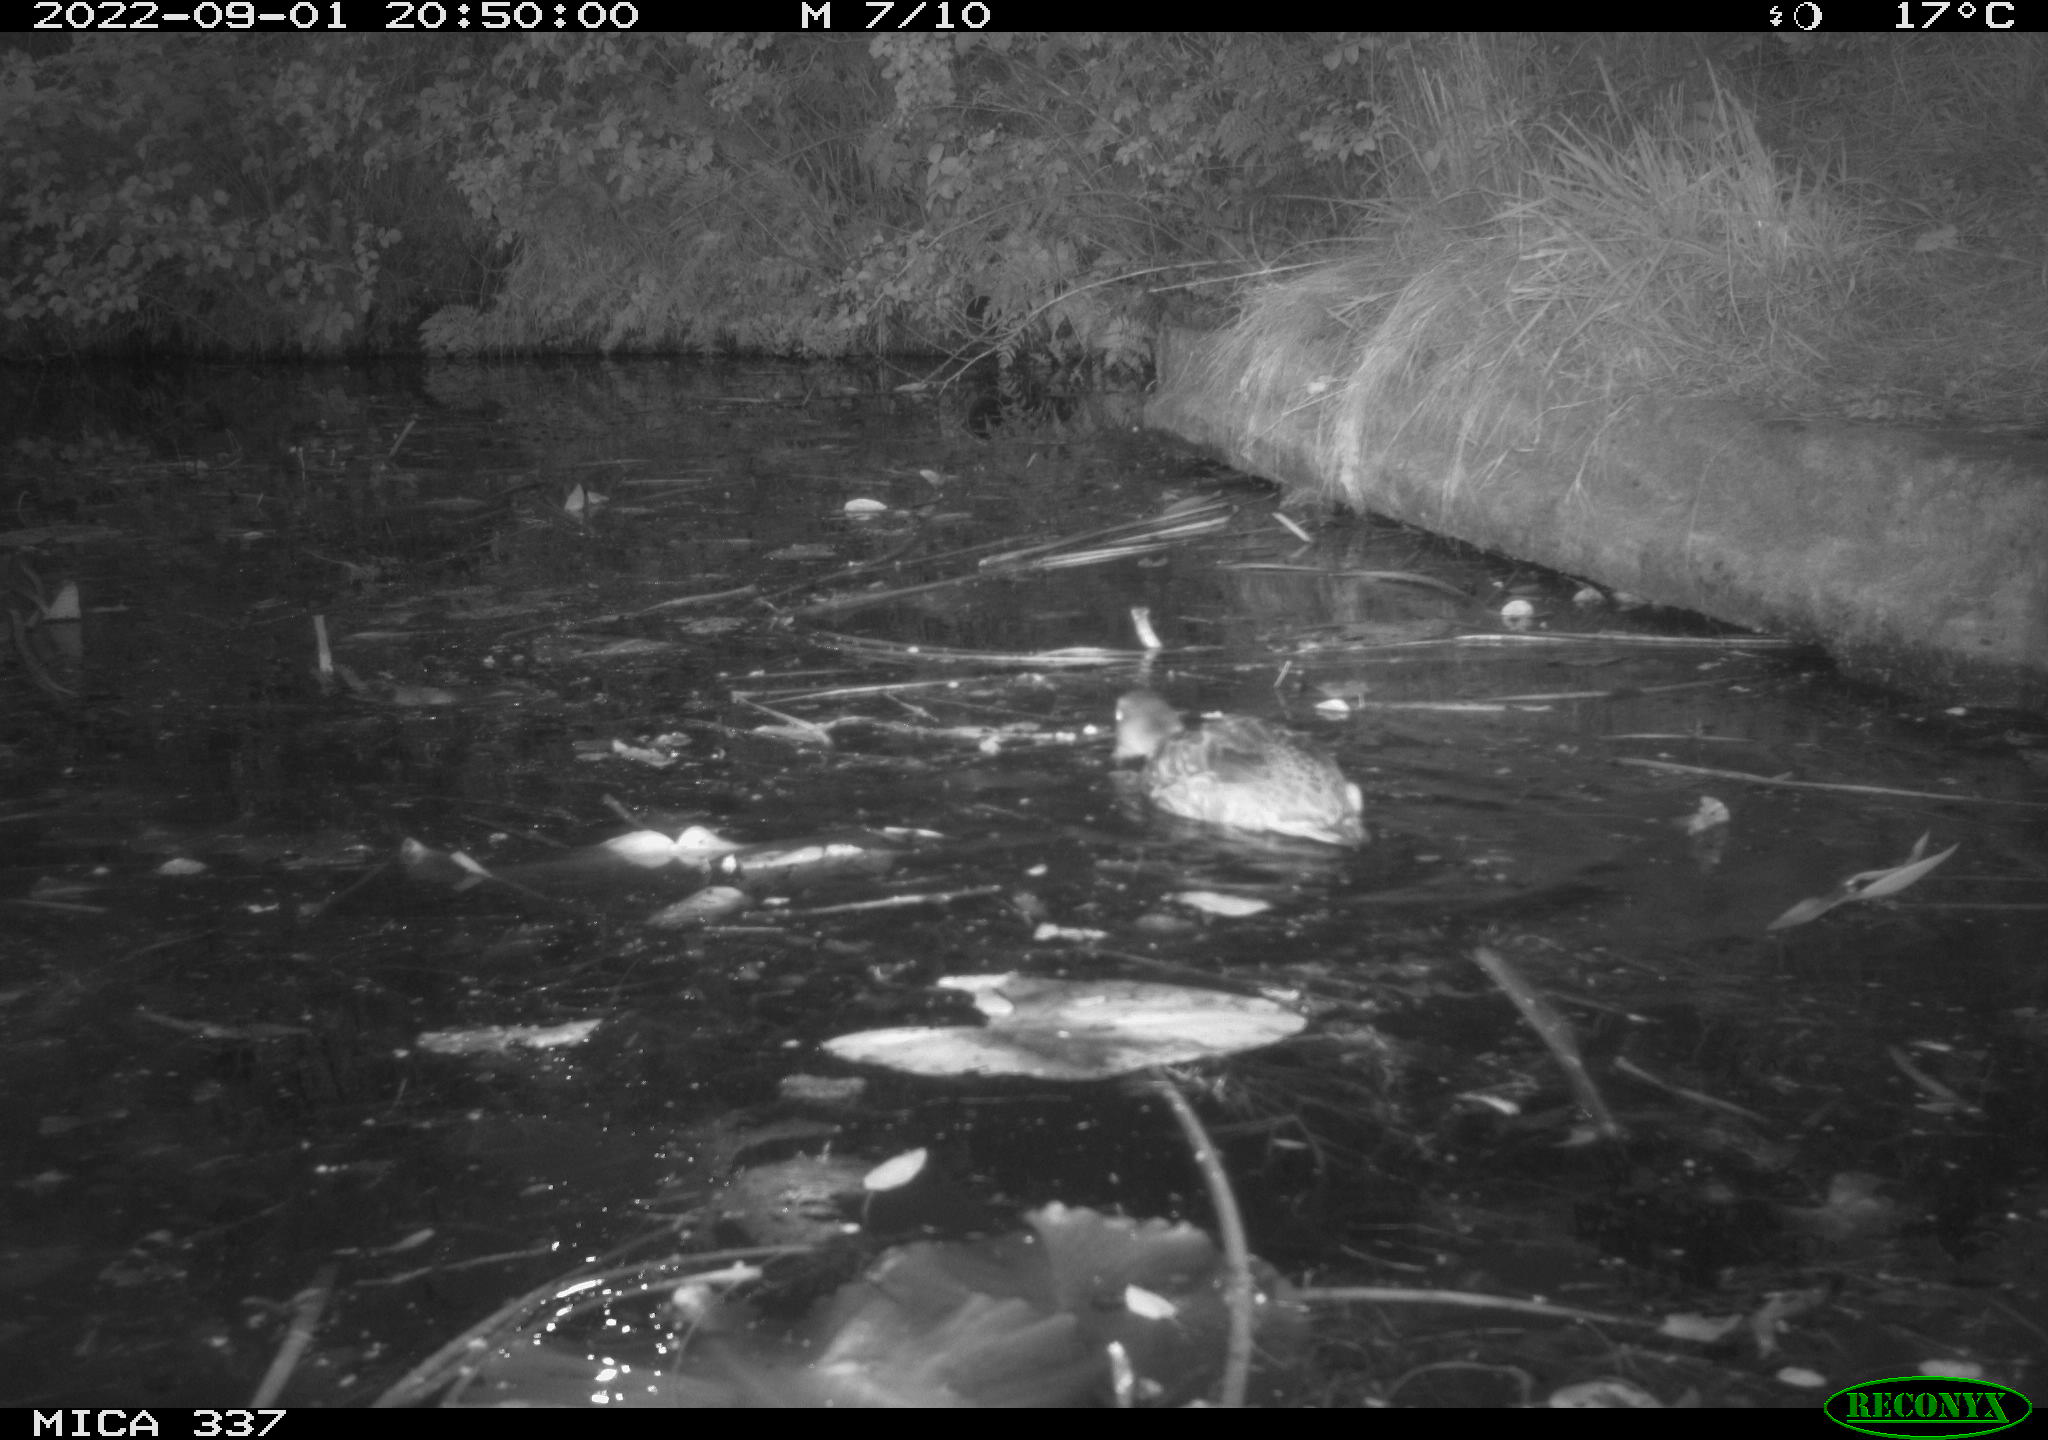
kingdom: Animalia
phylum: Chordata
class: Aves
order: Anseriformes
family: Anatidae
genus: Anas
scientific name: Anas platyrhynchos
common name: Mallard
